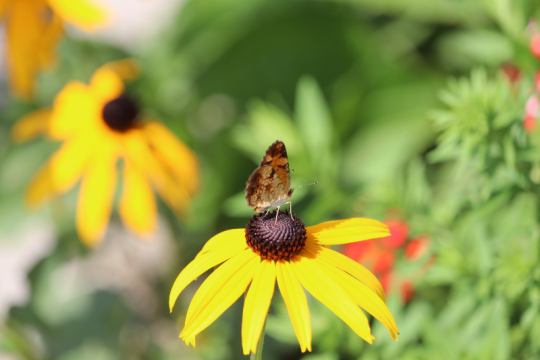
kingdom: Animalia
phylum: Arthropoda
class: Insecta
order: Lepidoptera
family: Nymphalidae
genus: Phyciodes
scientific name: Phyciodes
